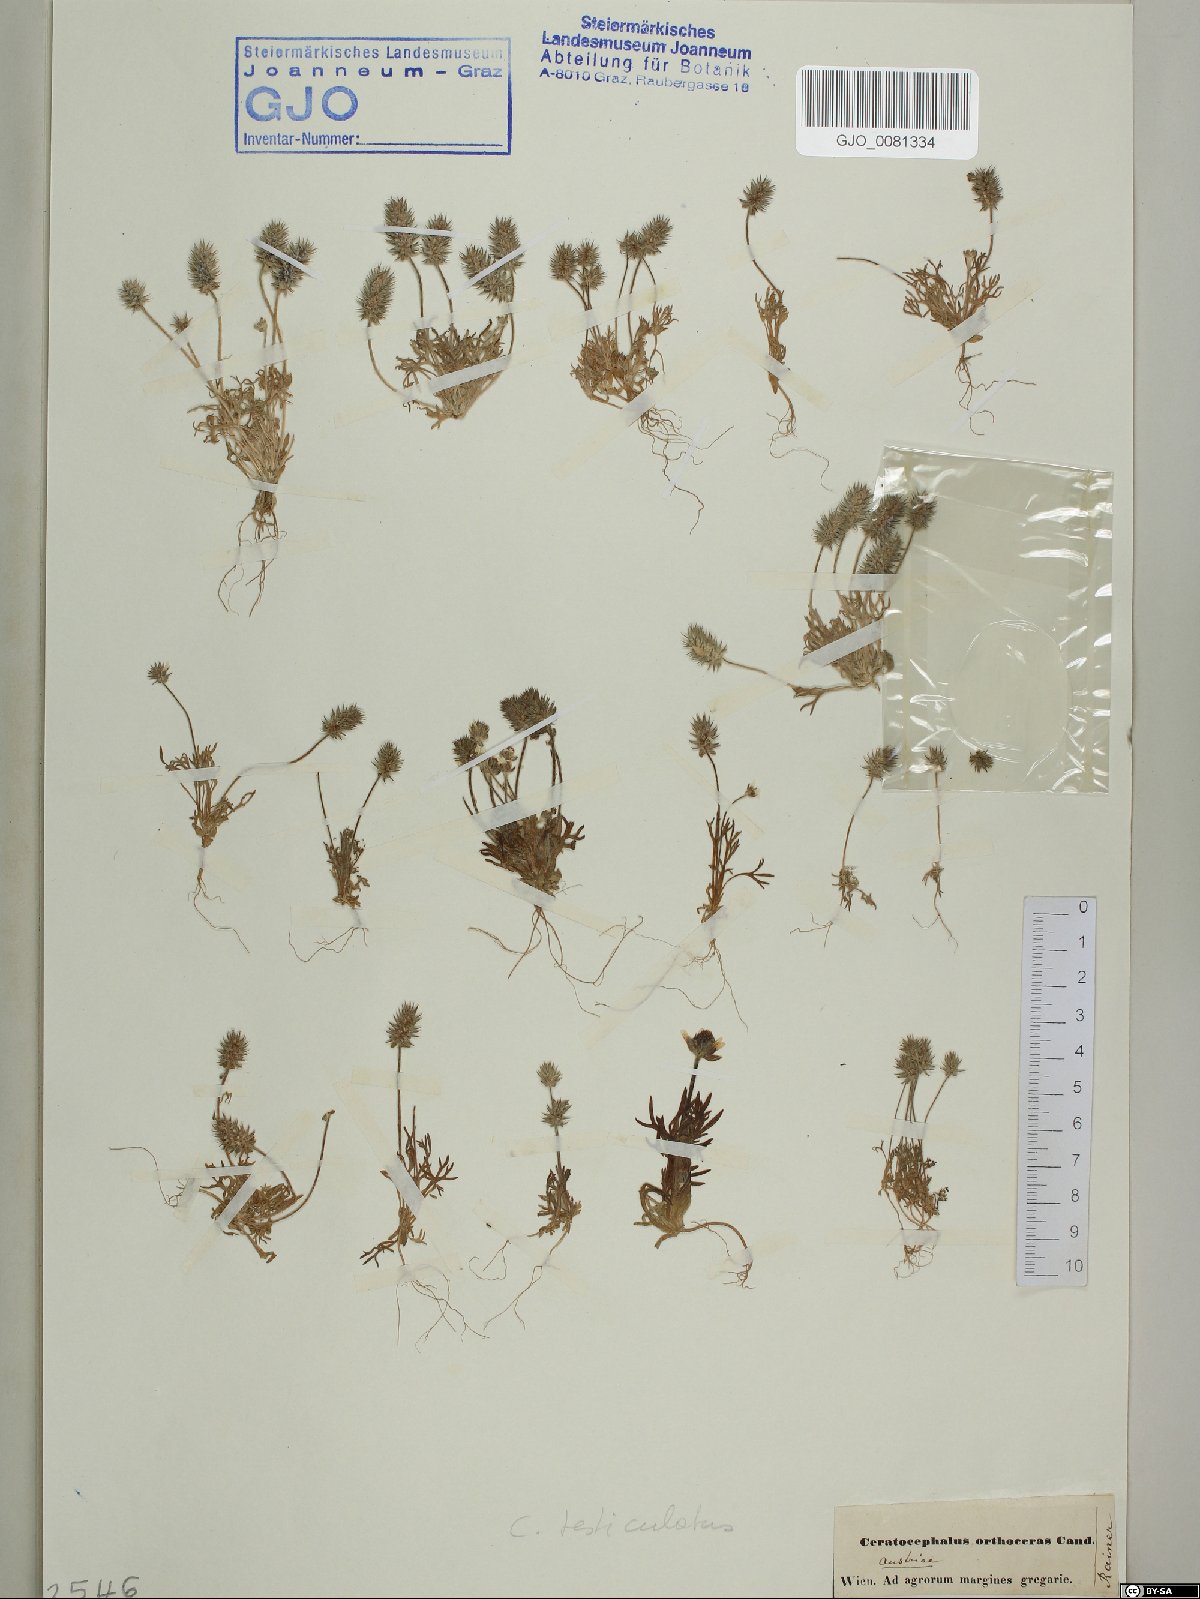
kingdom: Plantae
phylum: Tracheophyta
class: Magnoliopsida
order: Ranunculales
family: Ranunculaceae
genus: Ceratocephala
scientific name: Ceratocephala orthoceras
